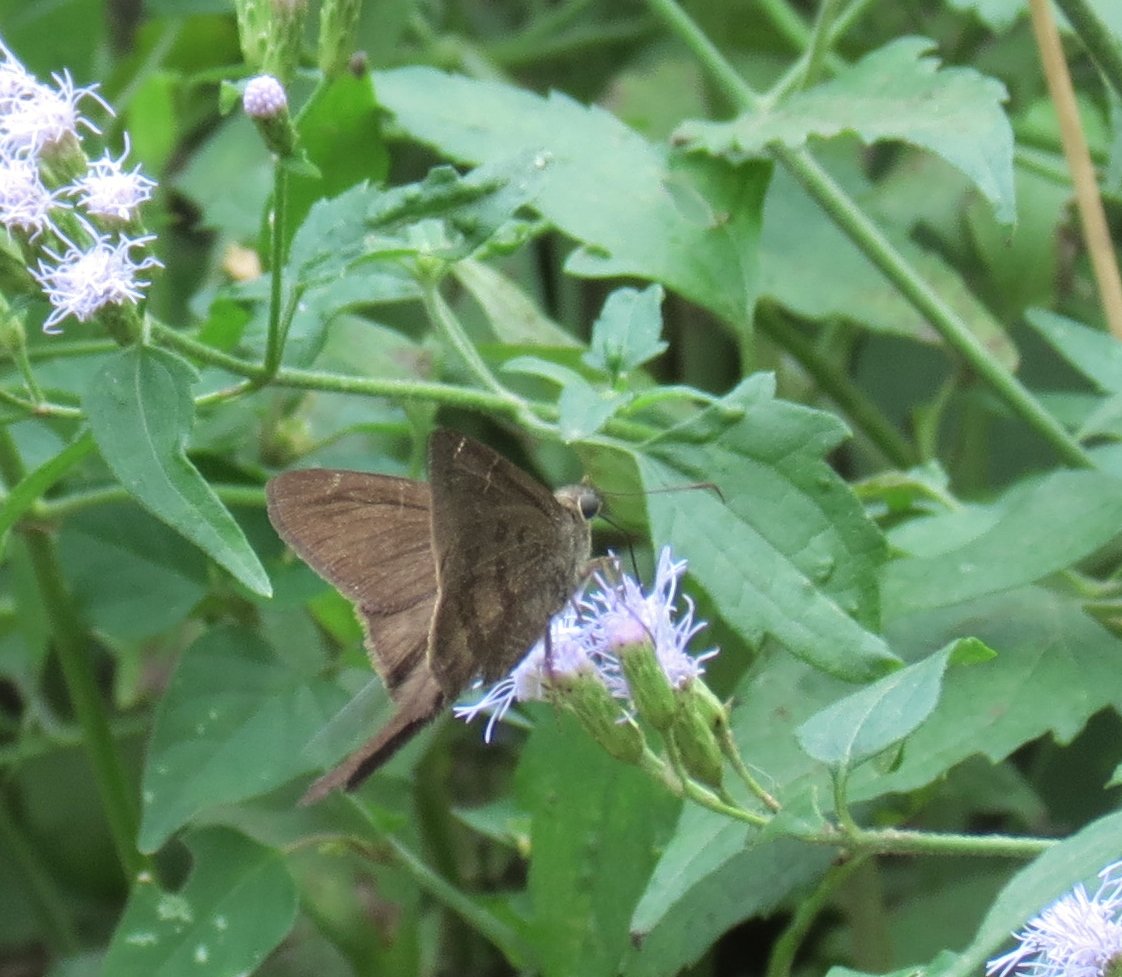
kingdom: Animalia
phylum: Arthropoda
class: Insecta
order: Lepidoptera
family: Hesperiidae
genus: Urbanus
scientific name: Urbanus procne
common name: Brown Longtail
